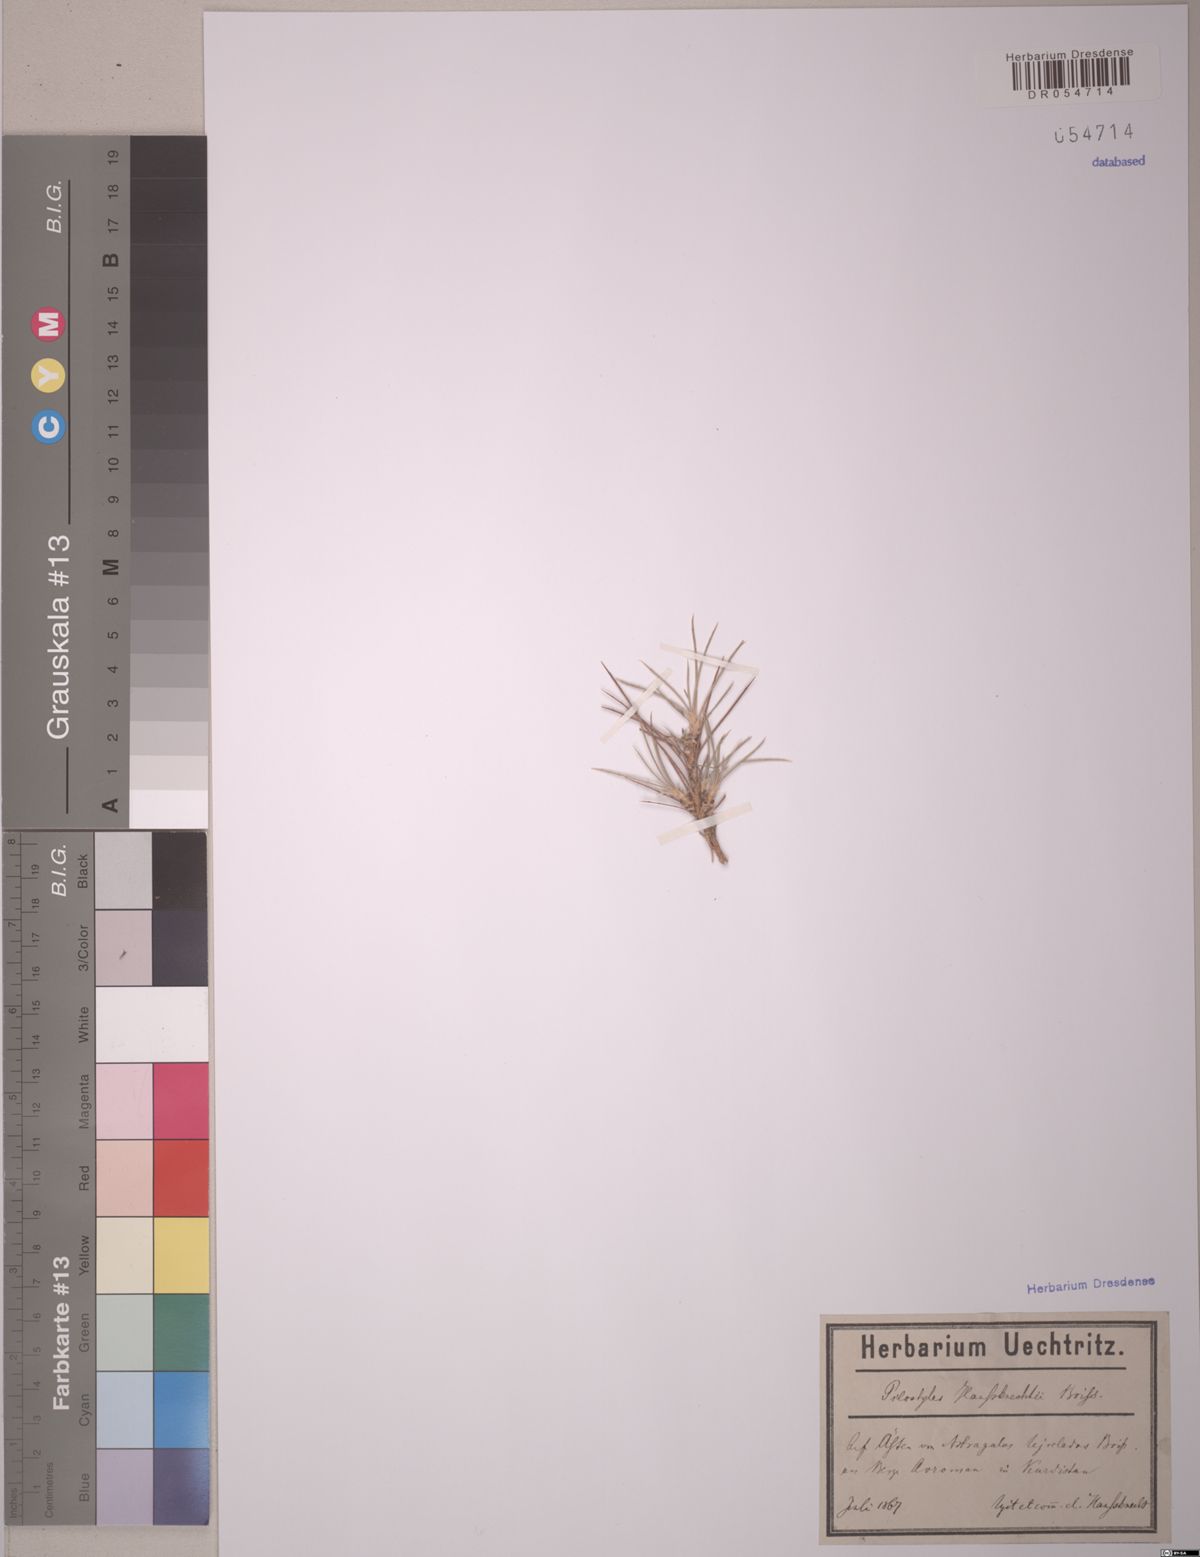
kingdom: Plantae
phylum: Tracheophyta
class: Magnoliopsida
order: Cucurbitales
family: Apodanthaceae
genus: Pilostyles
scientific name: Pilostyles haussknechtii
